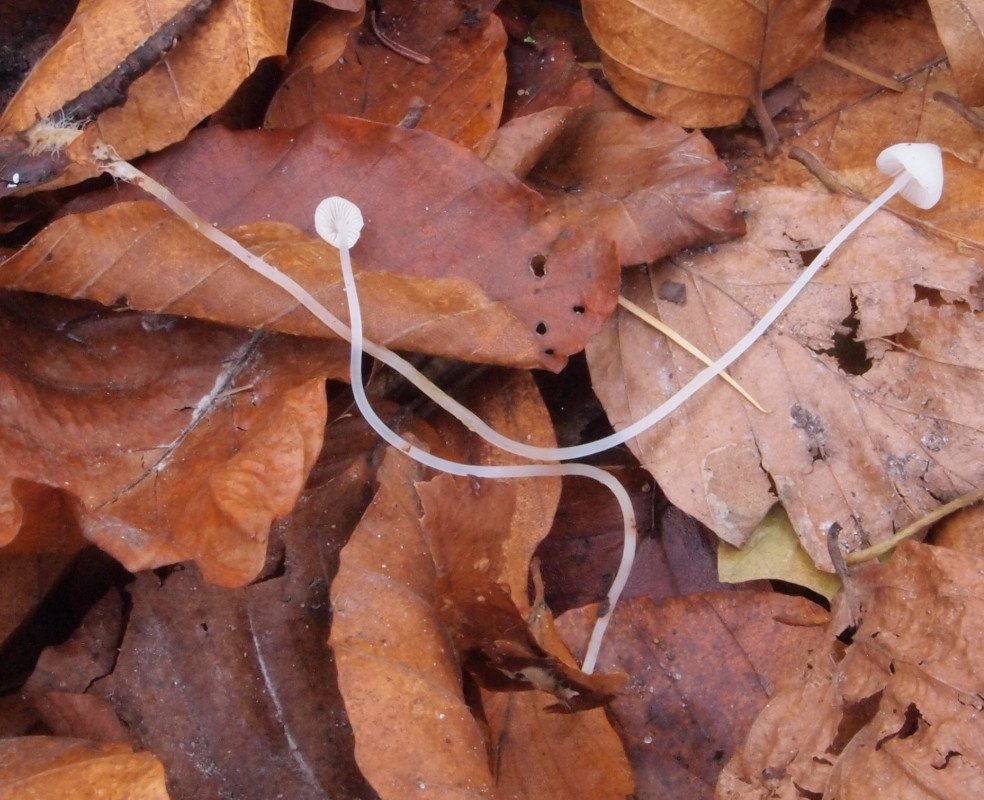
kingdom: Fungi
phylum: Basidiomycota
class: Agaricomycetes
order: Agaricales
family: Mycenaceae
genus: Mycena
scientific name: Mycena vitilis
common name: blankstokket huesvamp
